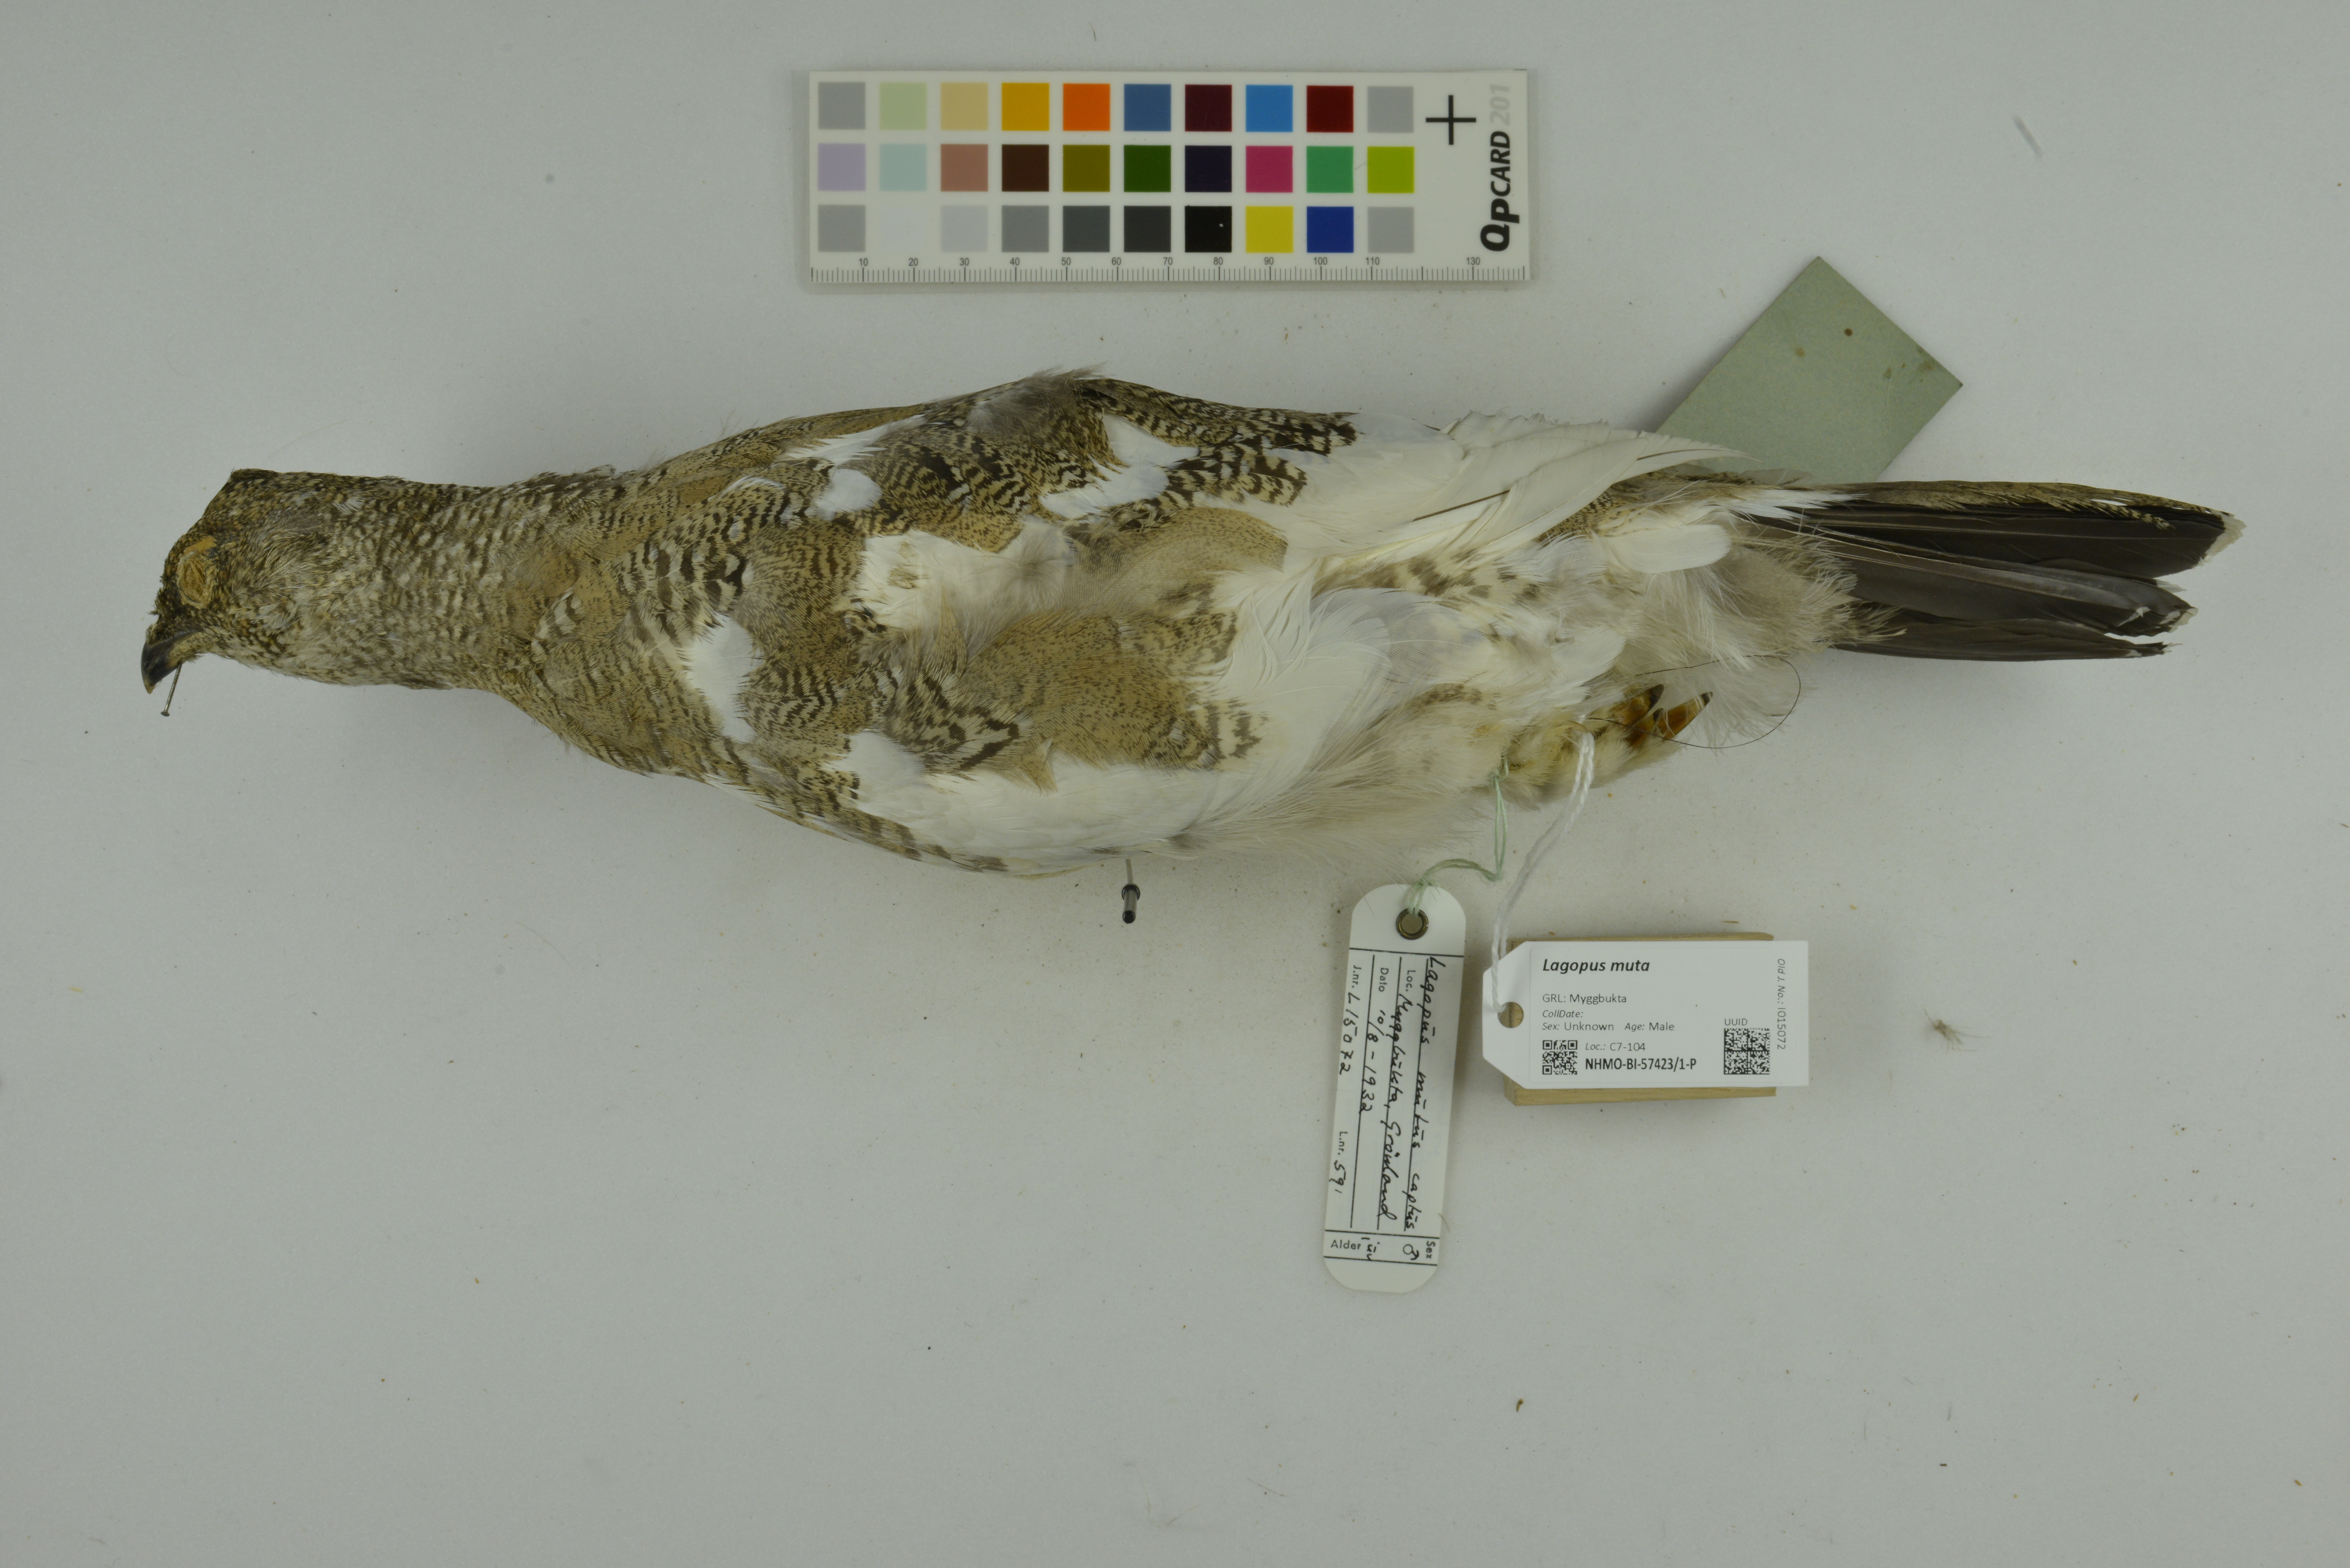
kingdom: Animalia
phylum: Chordata
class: Aves
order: Galliformes
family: Phasianidae
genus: Lagopus
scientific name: Lagopus muta
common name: Rock ptarmigan
